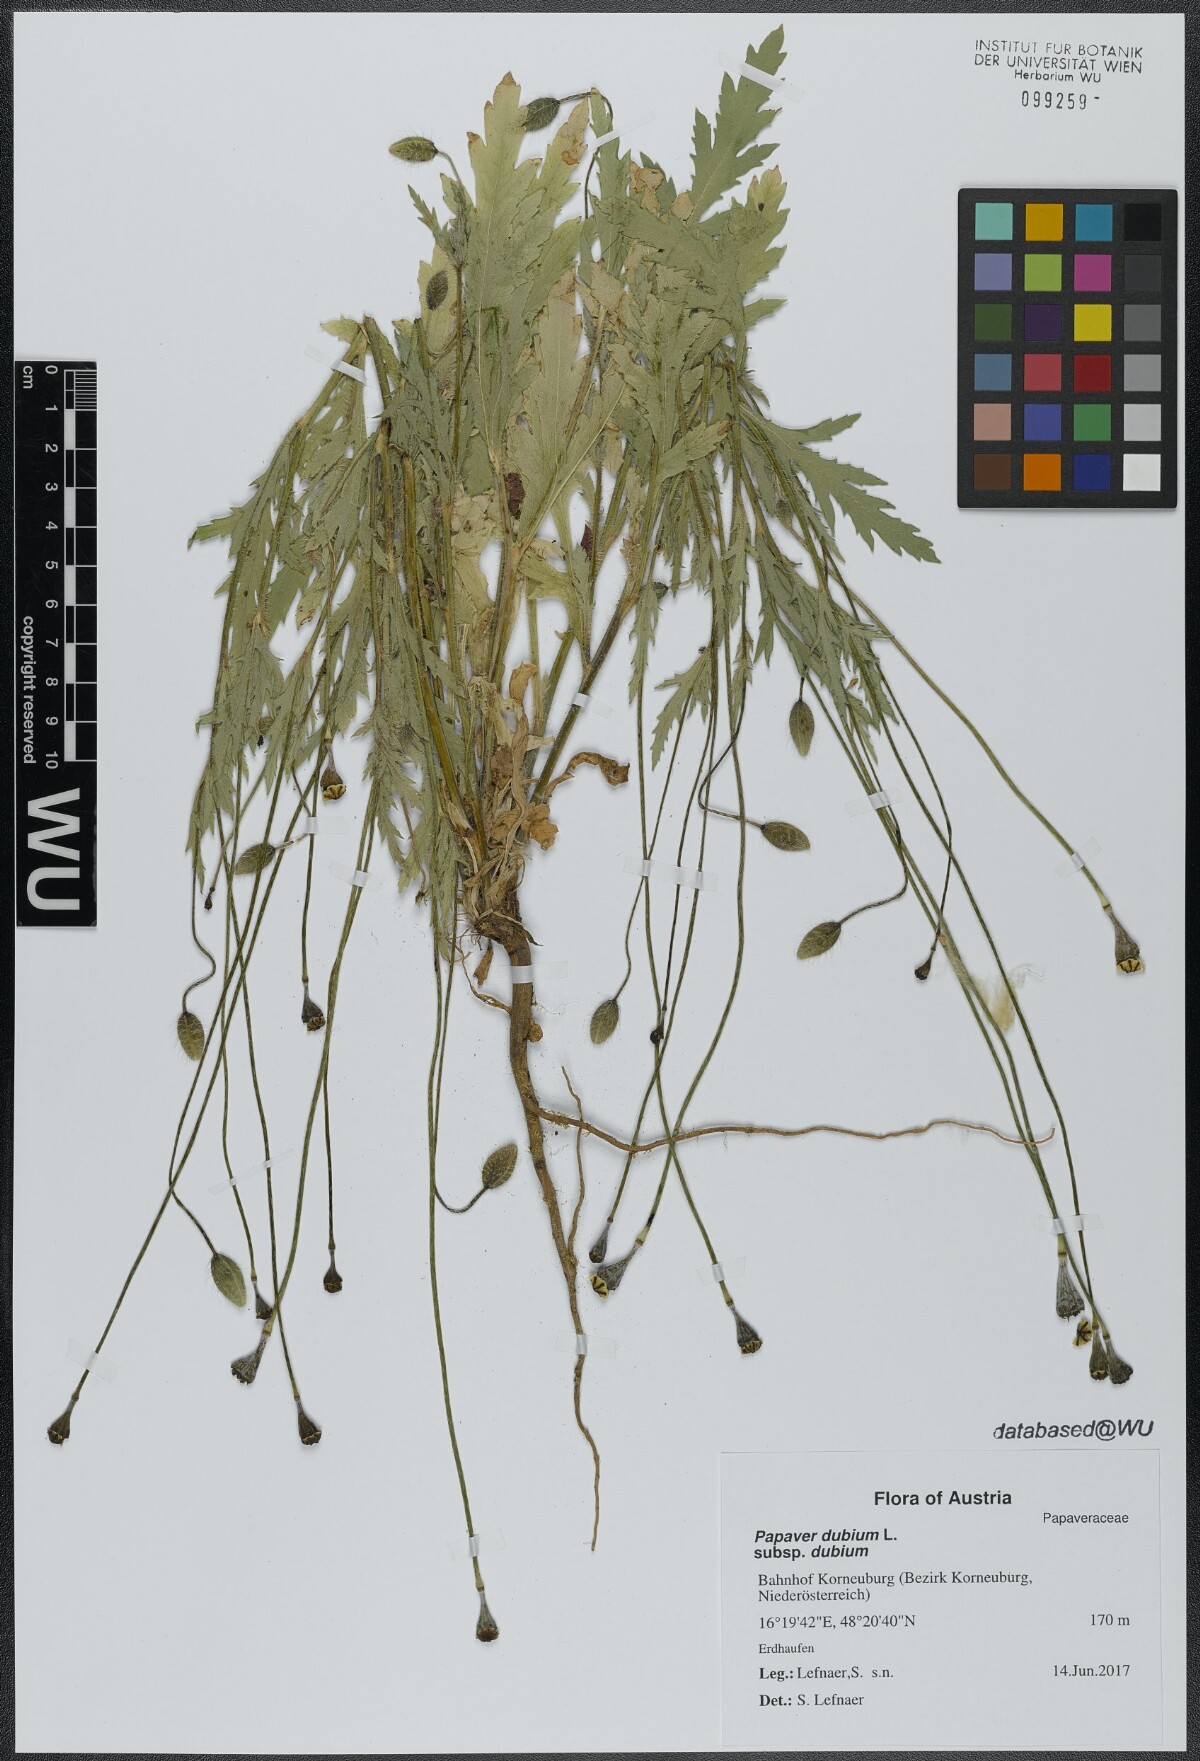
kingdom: Plantae
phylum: Tracheophyta
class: Magnoliopsida
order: Ranunculales
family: Papaveraceae
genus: Papaver
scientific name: Papaver dubium
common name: Long-headed poppy
